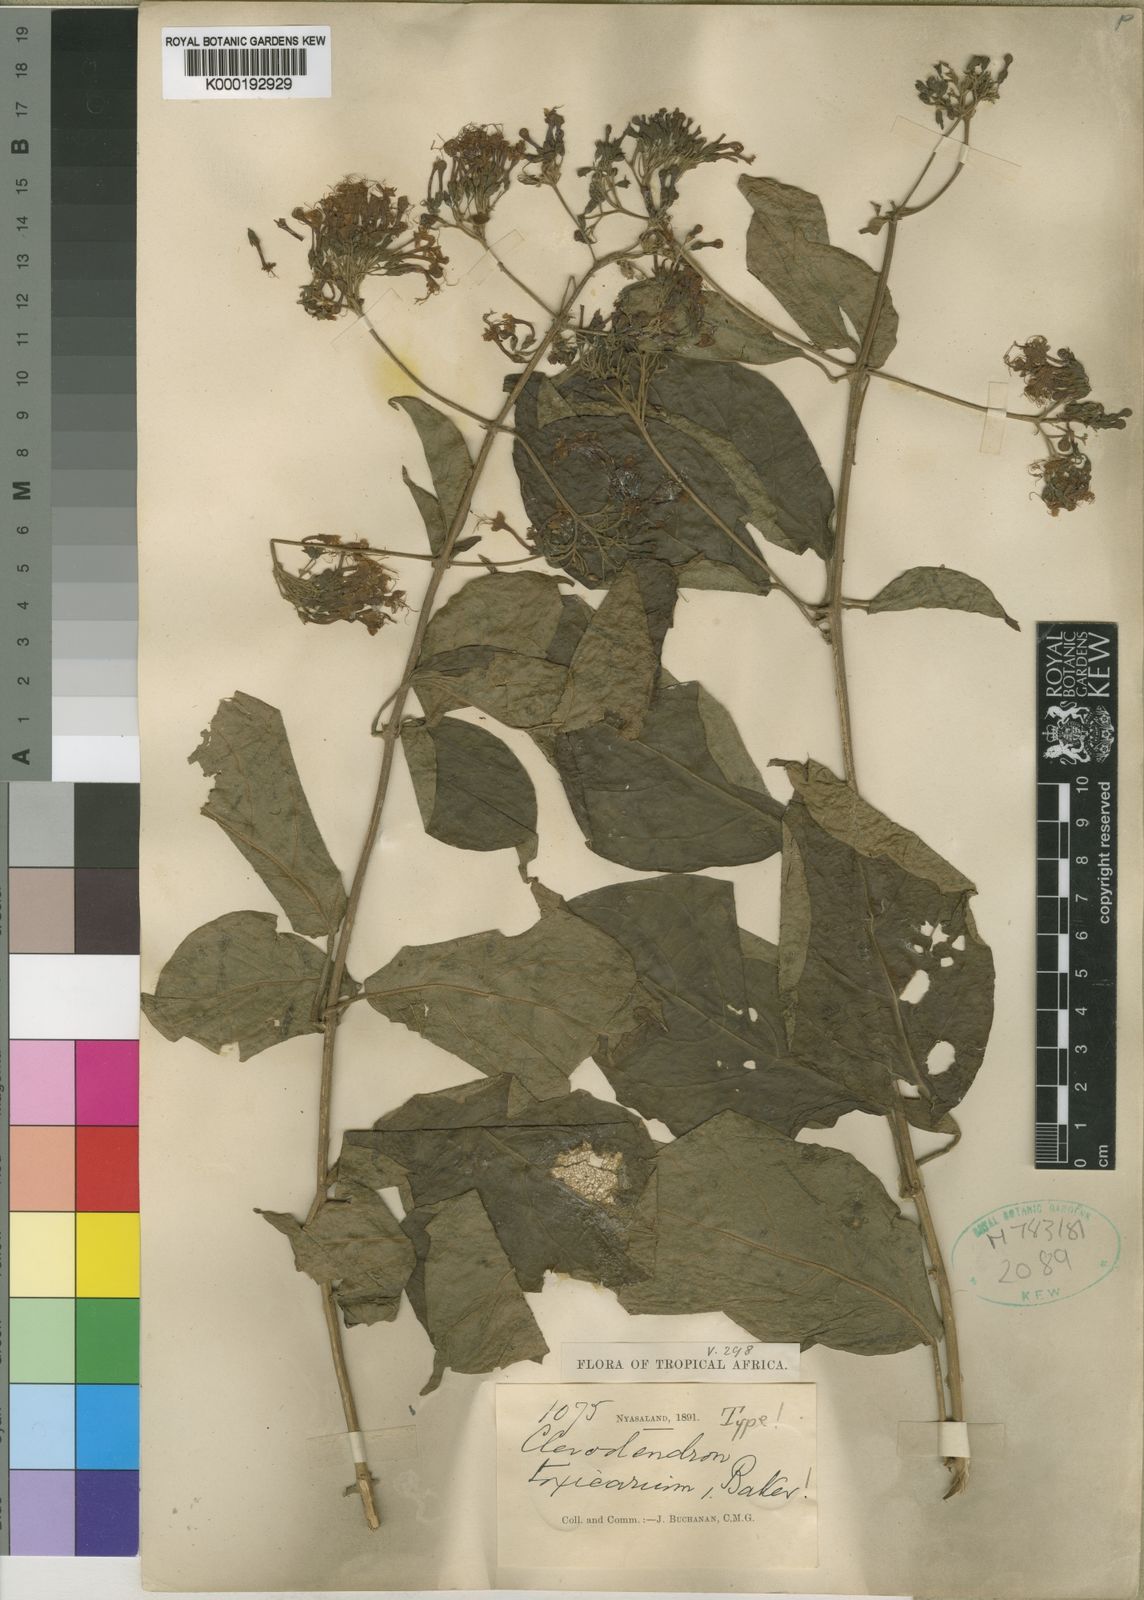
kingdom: Plantae
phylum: Tracheophyta
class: Magnoliopsida
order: Lamiales
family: Lamiaceae
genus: Clerodendrum
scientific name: Clerodendrum toxicarium
